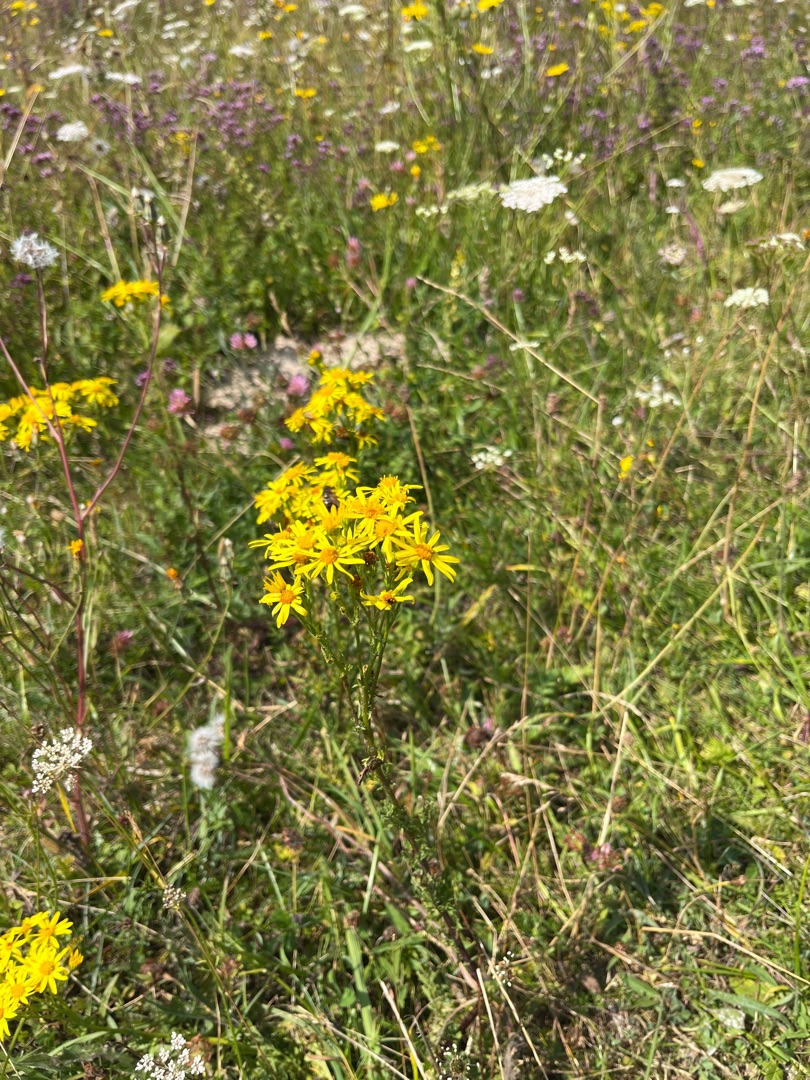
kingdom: Plantae
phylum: Tracheophyta
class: Magnoliopsida
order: Asterales
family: Asteraceae
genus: Jacobaea
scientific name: Jacobaea vulgaris
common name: Eng-brandbæger
